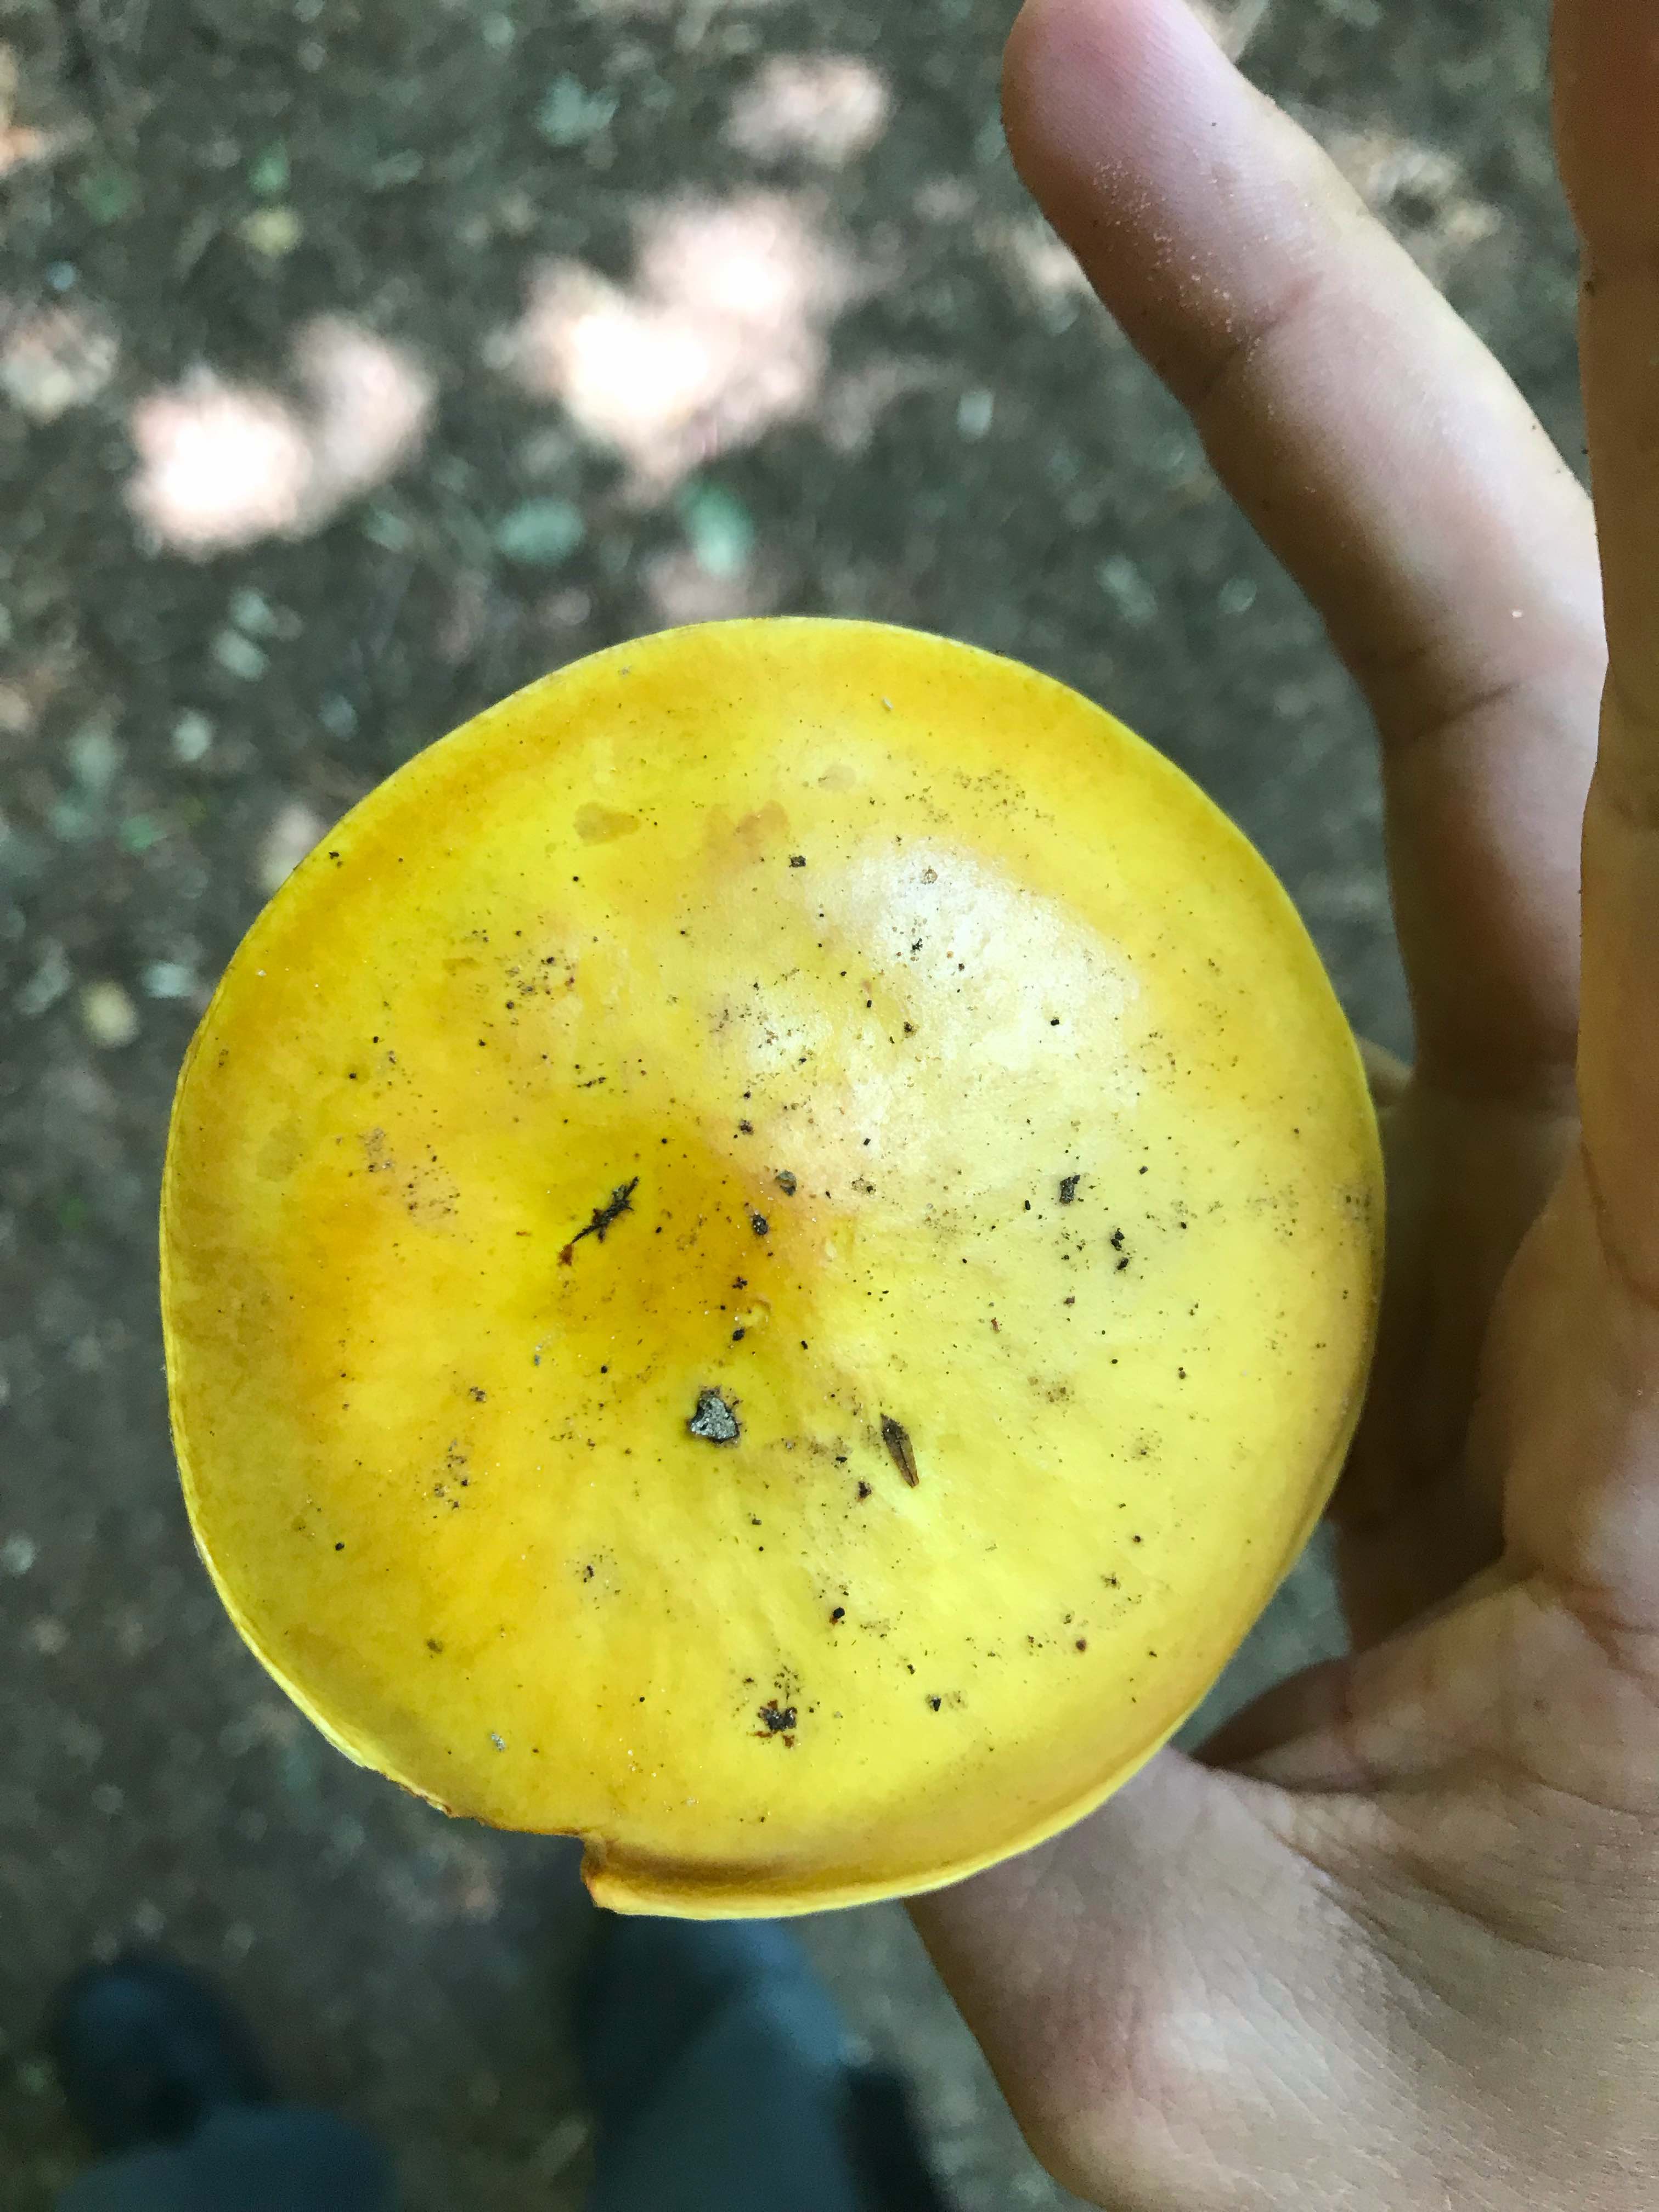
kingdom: Fungi
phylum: Basidiomycota
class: Agaricomycetes
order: Boletales
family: Suillaceae
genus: Suillus
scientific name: Suillus grevillei
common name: lærke-slimrørhat
